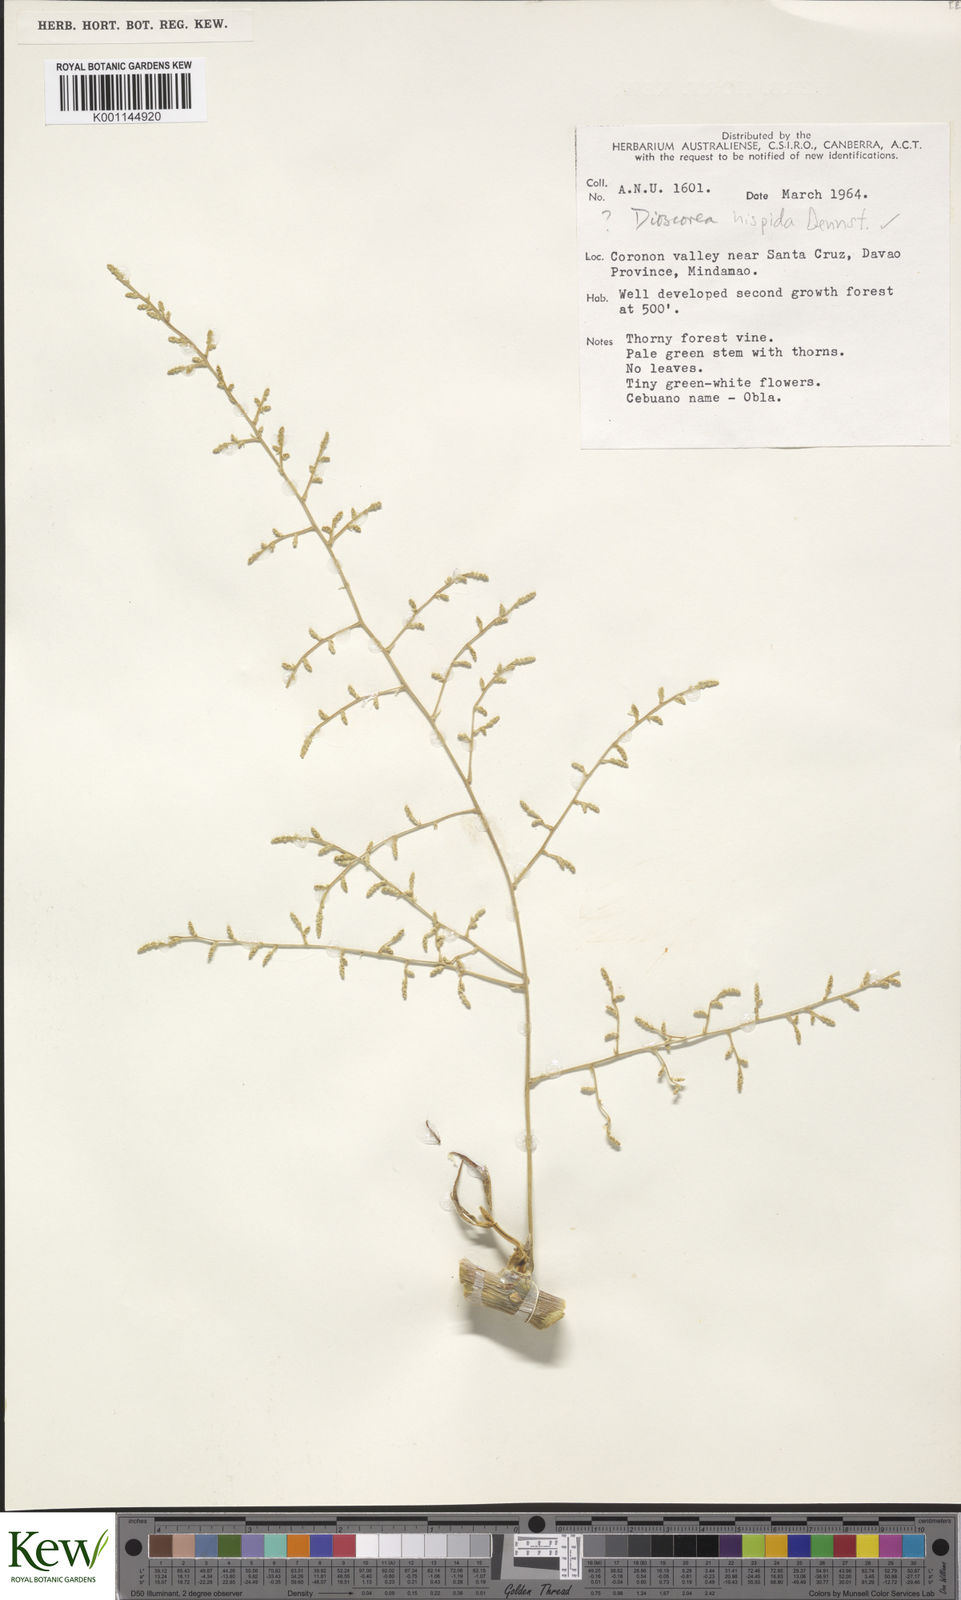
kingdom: Plantae
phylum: Tracheophyta
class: Liliopsida
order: Dioscoreales
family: Dioscoreaceae
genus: Dioscorea
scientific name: Dioscorea
